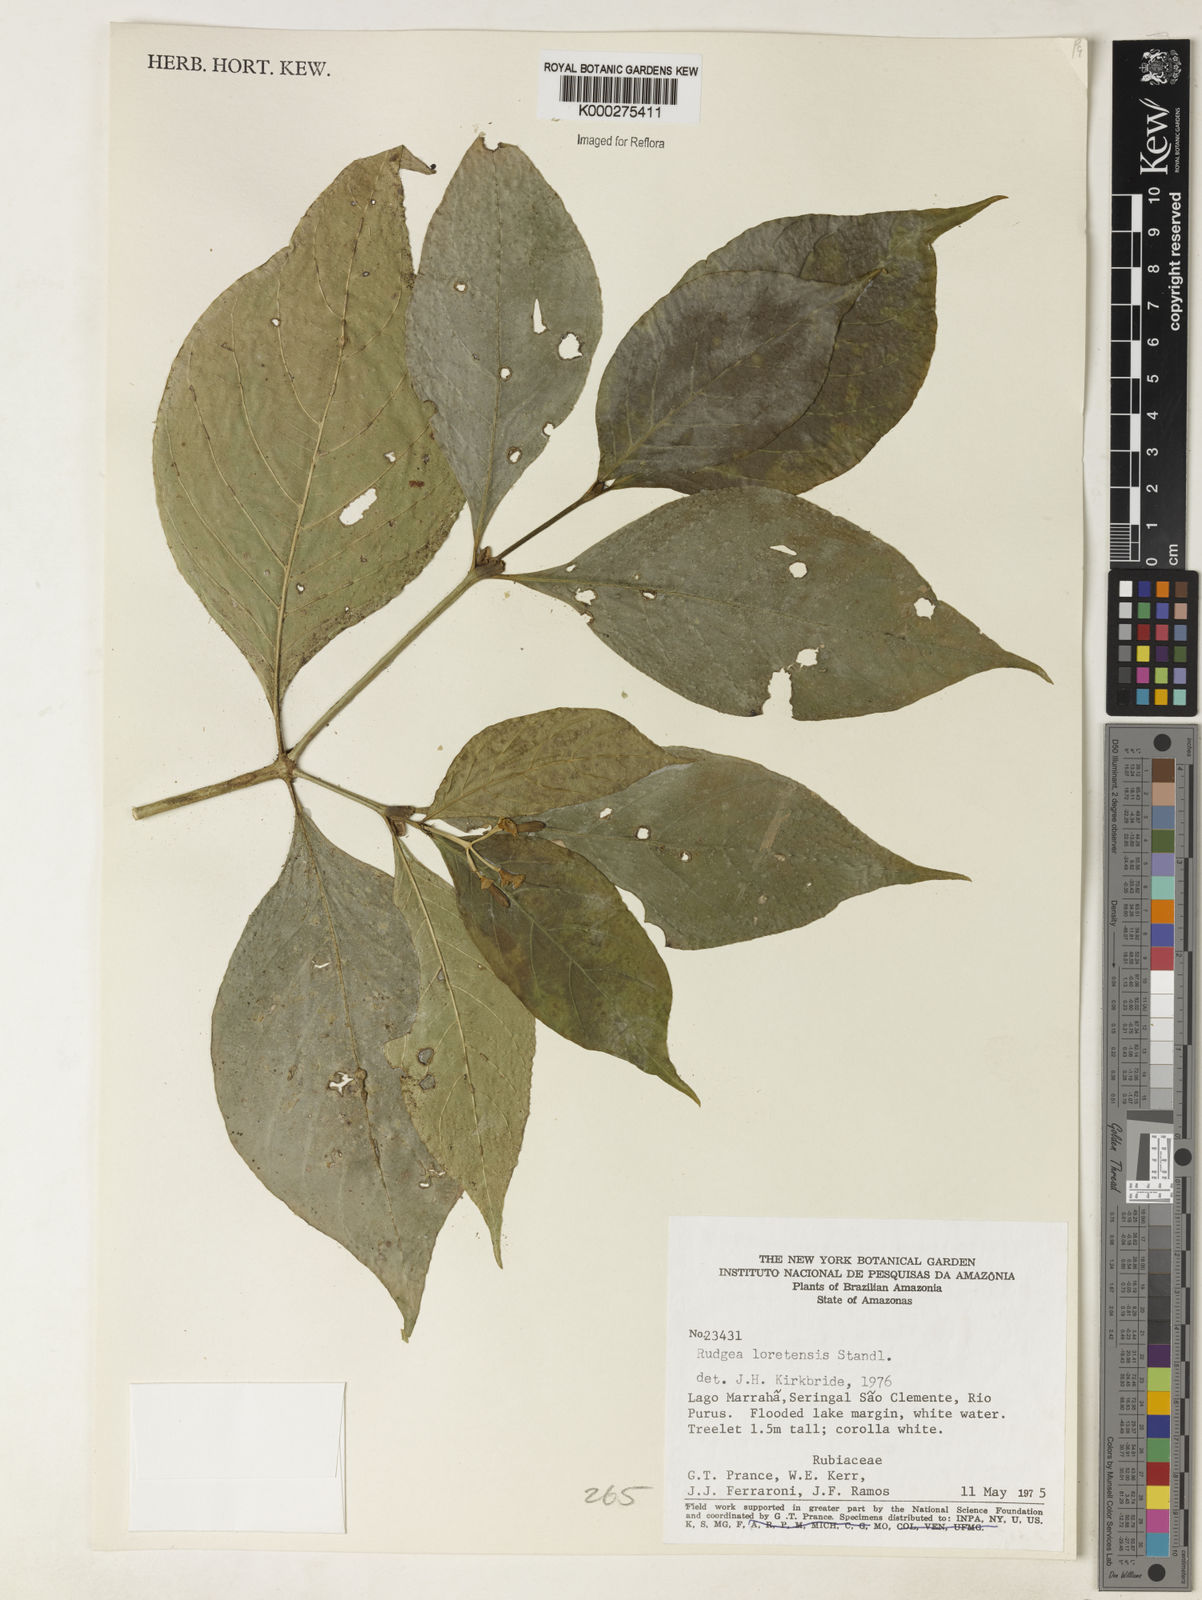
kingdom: Plantae
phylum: Tracheophyta
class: Magnoliopsida
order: Gentianales
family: Rubiaceae
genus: Rudgea
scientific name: Rudgea loretensis
